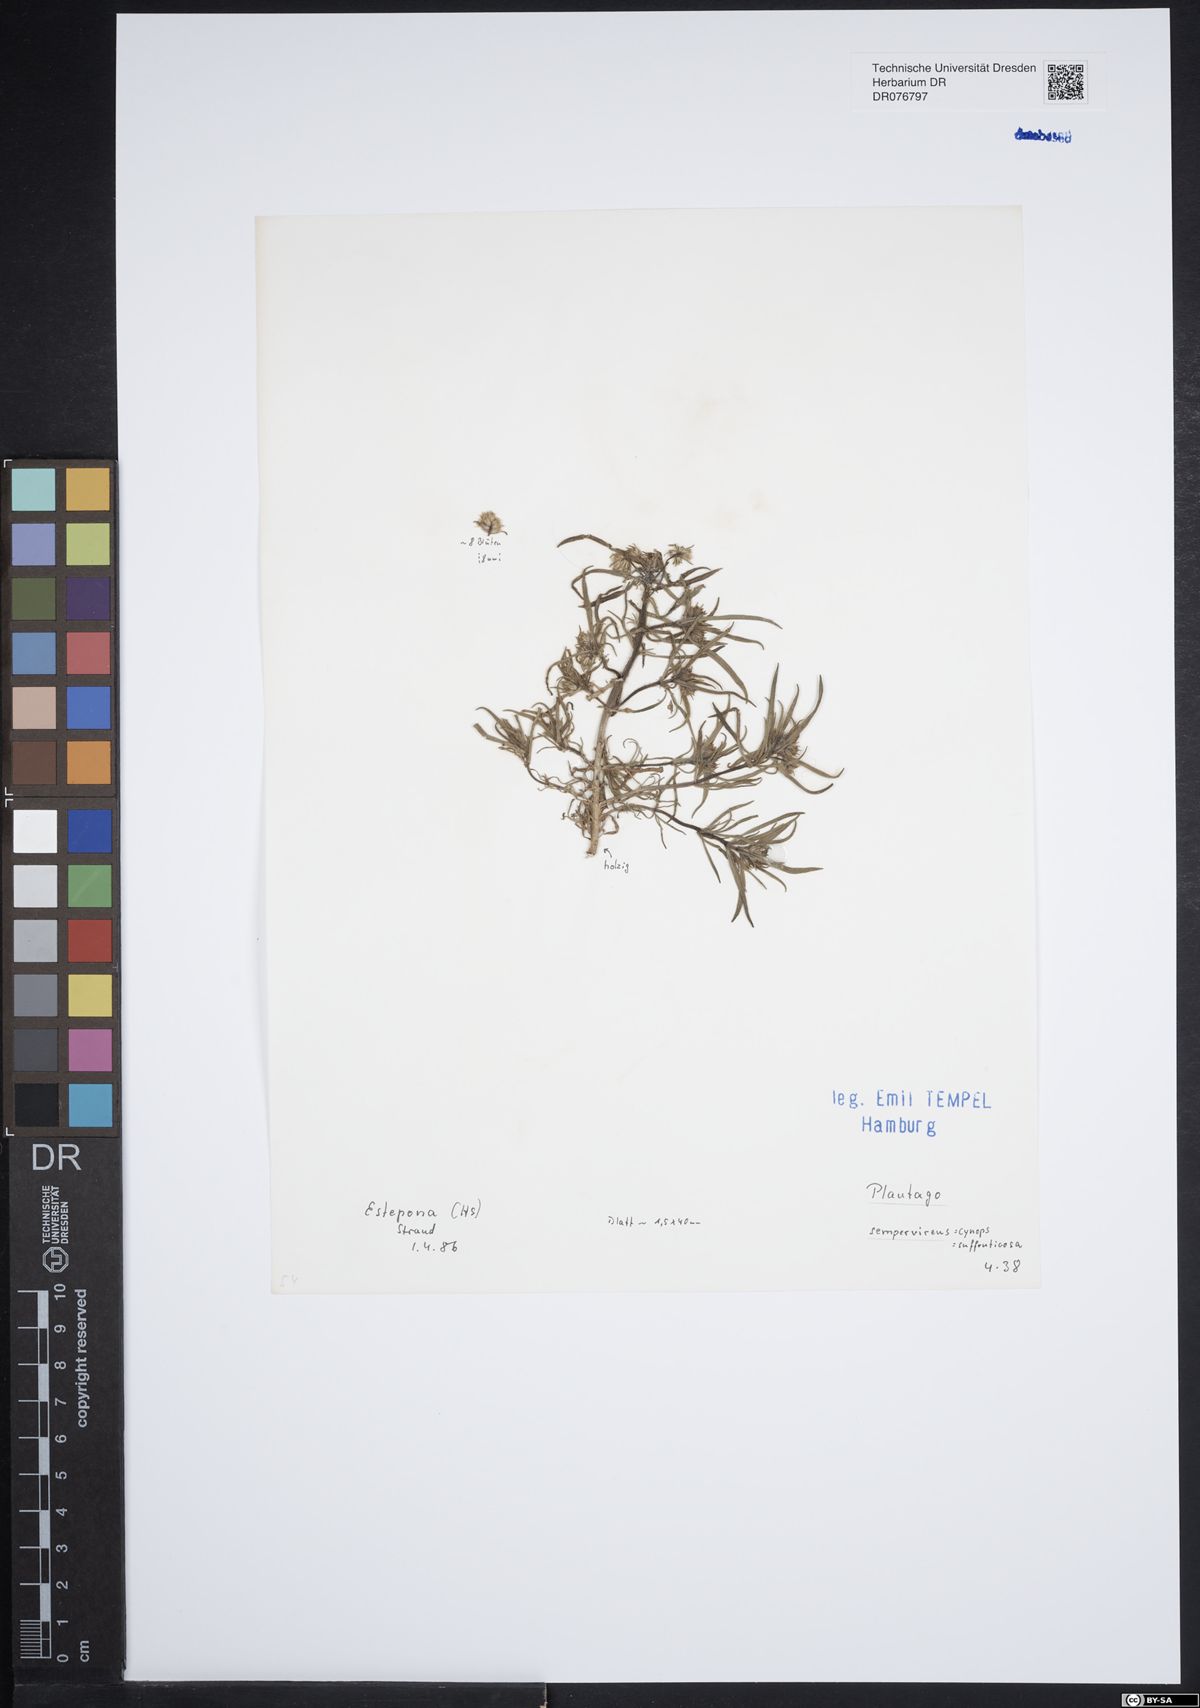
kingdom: Plantae
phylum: Tracheophyta
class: Magnoliopsida
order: Lamiales
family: Plantaginaceae
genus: Plantago
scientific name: Plantago sempervirens
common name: Shrubby plantain
